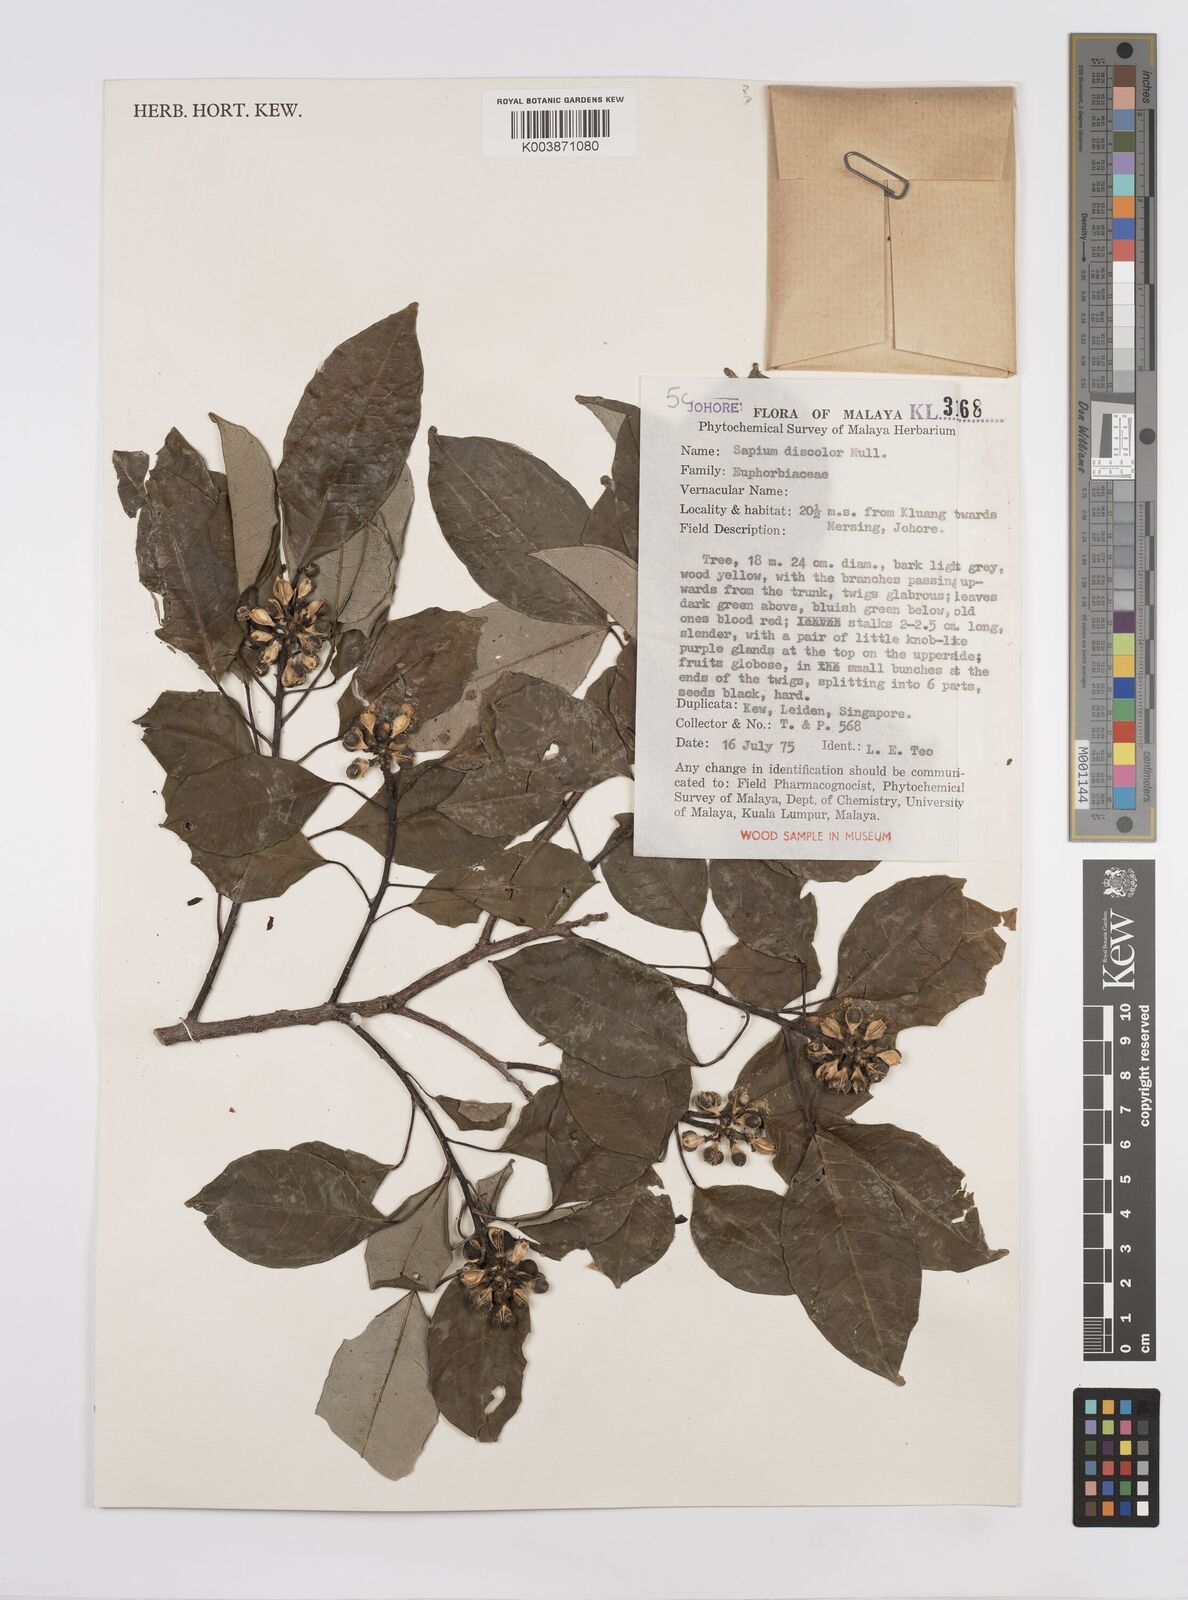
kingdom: Plantae
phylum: Tracheophyta
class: Magnoliopsida
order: Malpighiales
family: Euphorbiaceae
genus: Triadica
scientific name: Triadica cochinchinensis
